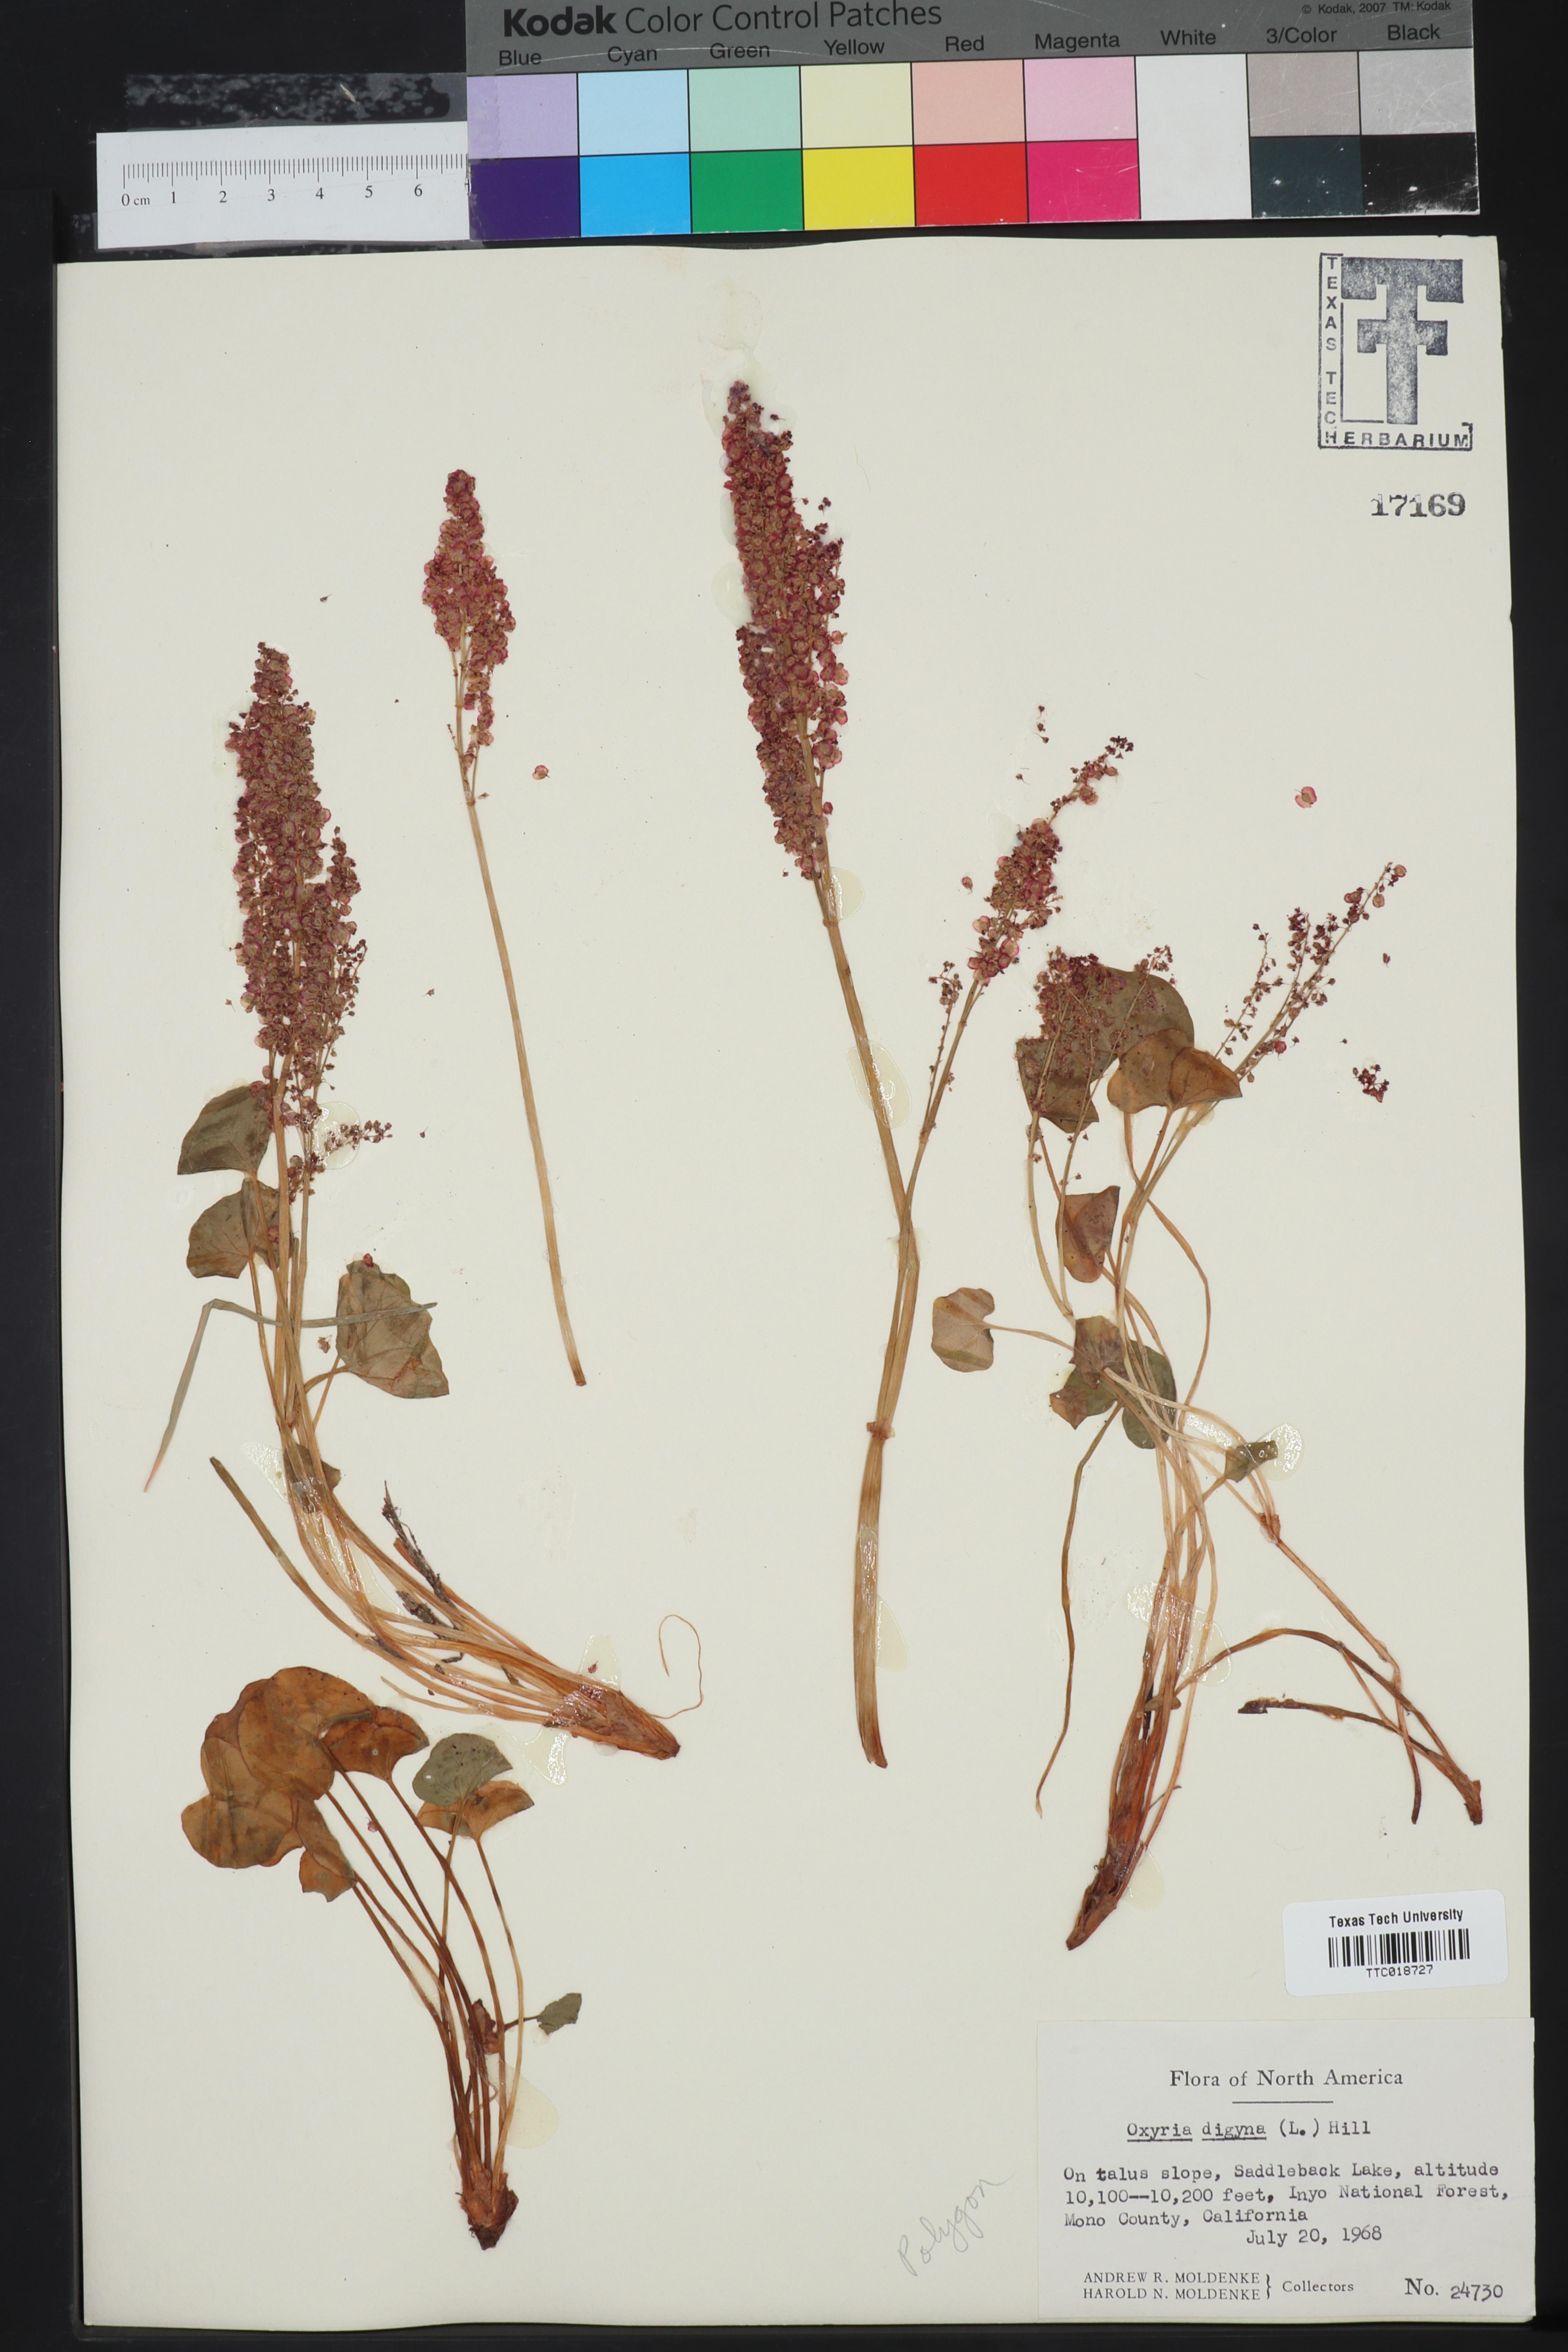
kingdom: Plantae
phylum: Tracheophyta
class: Magnoliopsida
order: Caryophyllales
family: Polygonaceae
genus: Oxyria
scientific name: Oxyria digyna
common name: Alpine mountain-sorrel
